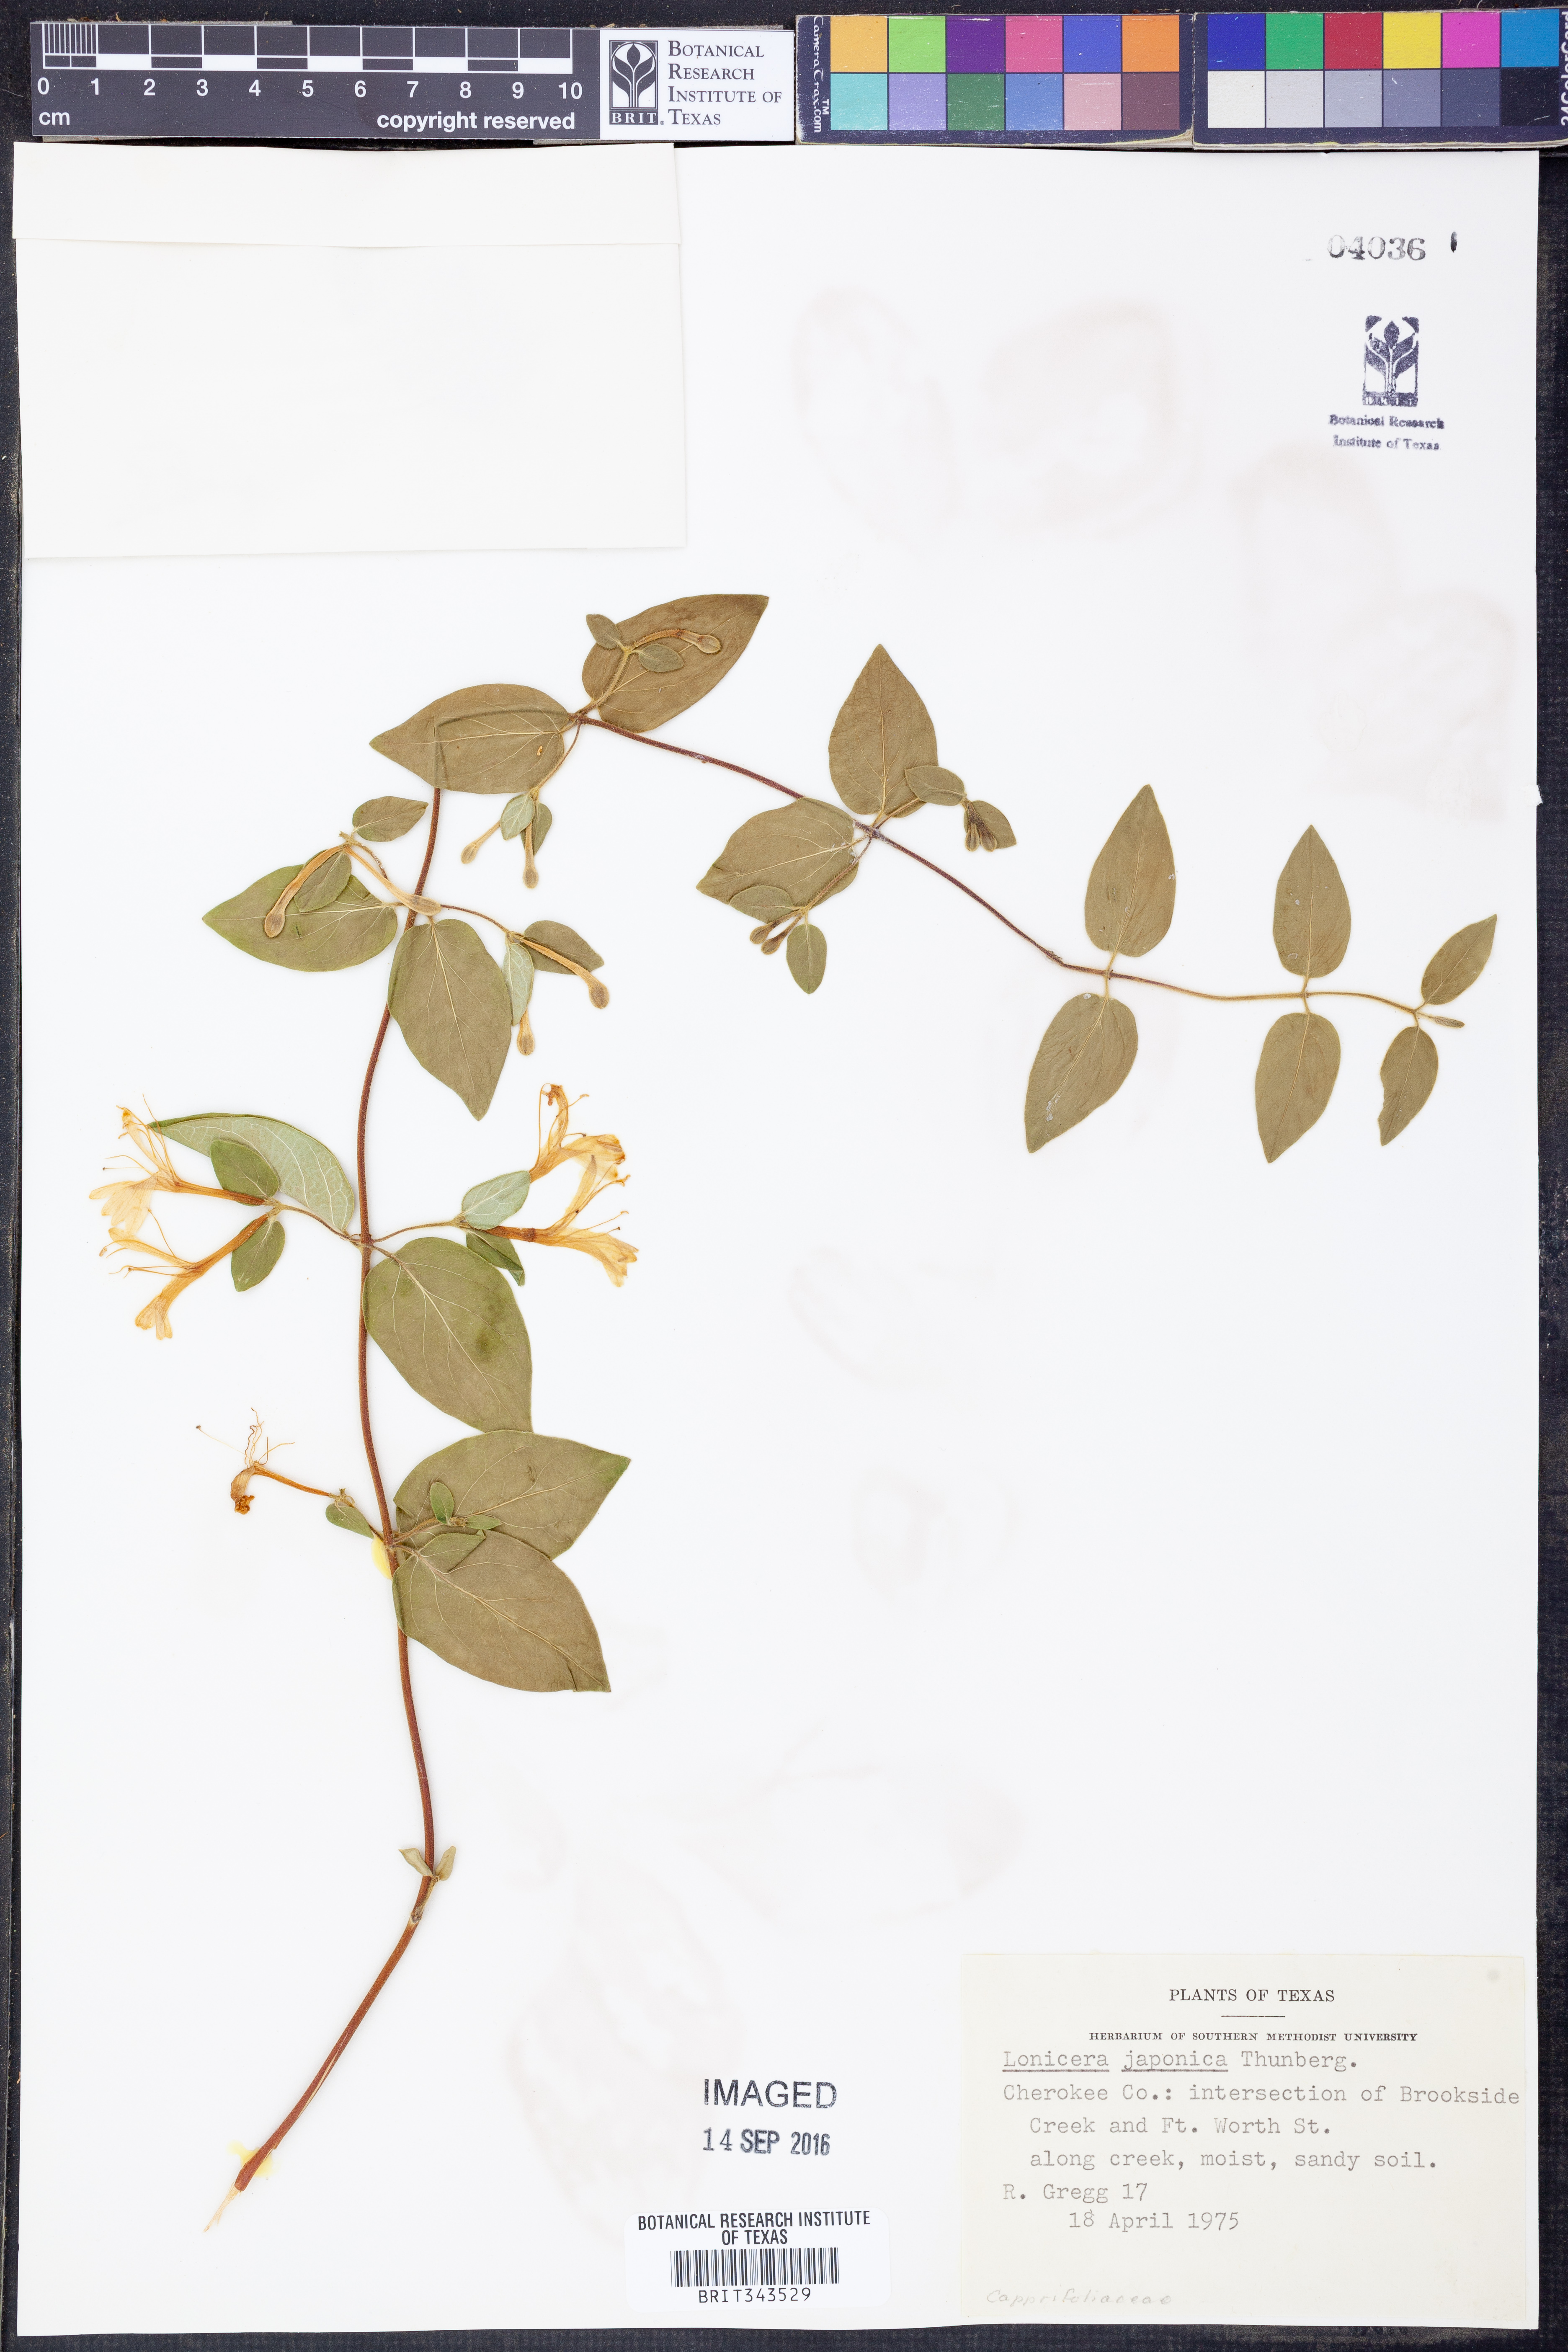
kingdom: Plantae
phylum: Tracheophyta
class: Magnoliopsida
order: Dipsacales
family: Caprifoliaceae
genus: Lonicera
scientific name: Lonicera japonica
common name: Japanese honeysuckle
